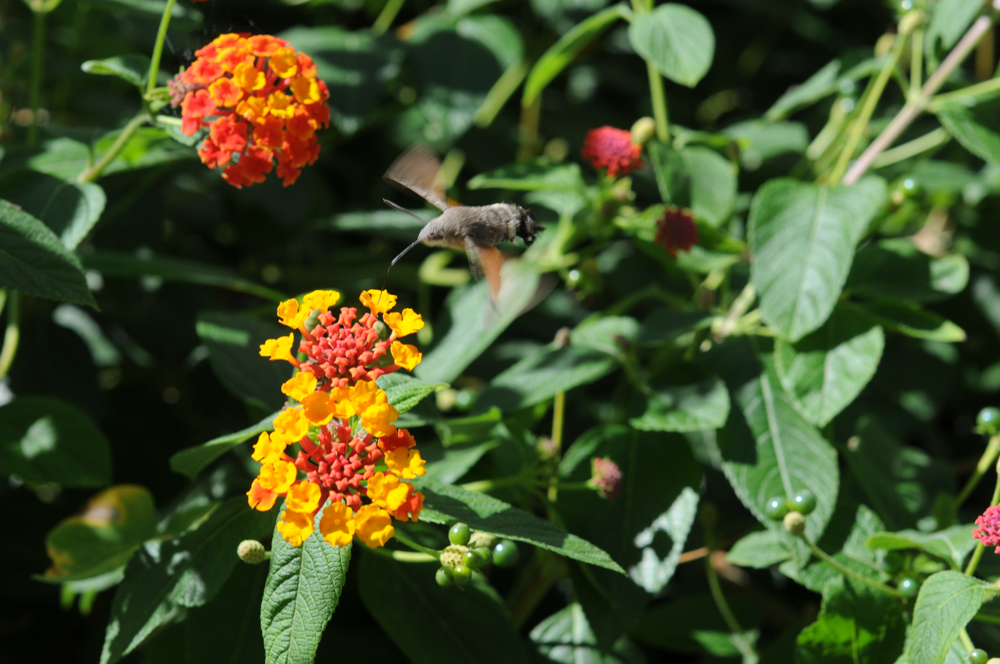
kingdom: Animalia
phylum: Arthropoda
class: Insecta
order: Lepidoptera
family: Sphingidae
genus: Macroglossum
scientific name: Macroglossum stellatarum
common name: Humming-bird hawk-moth
